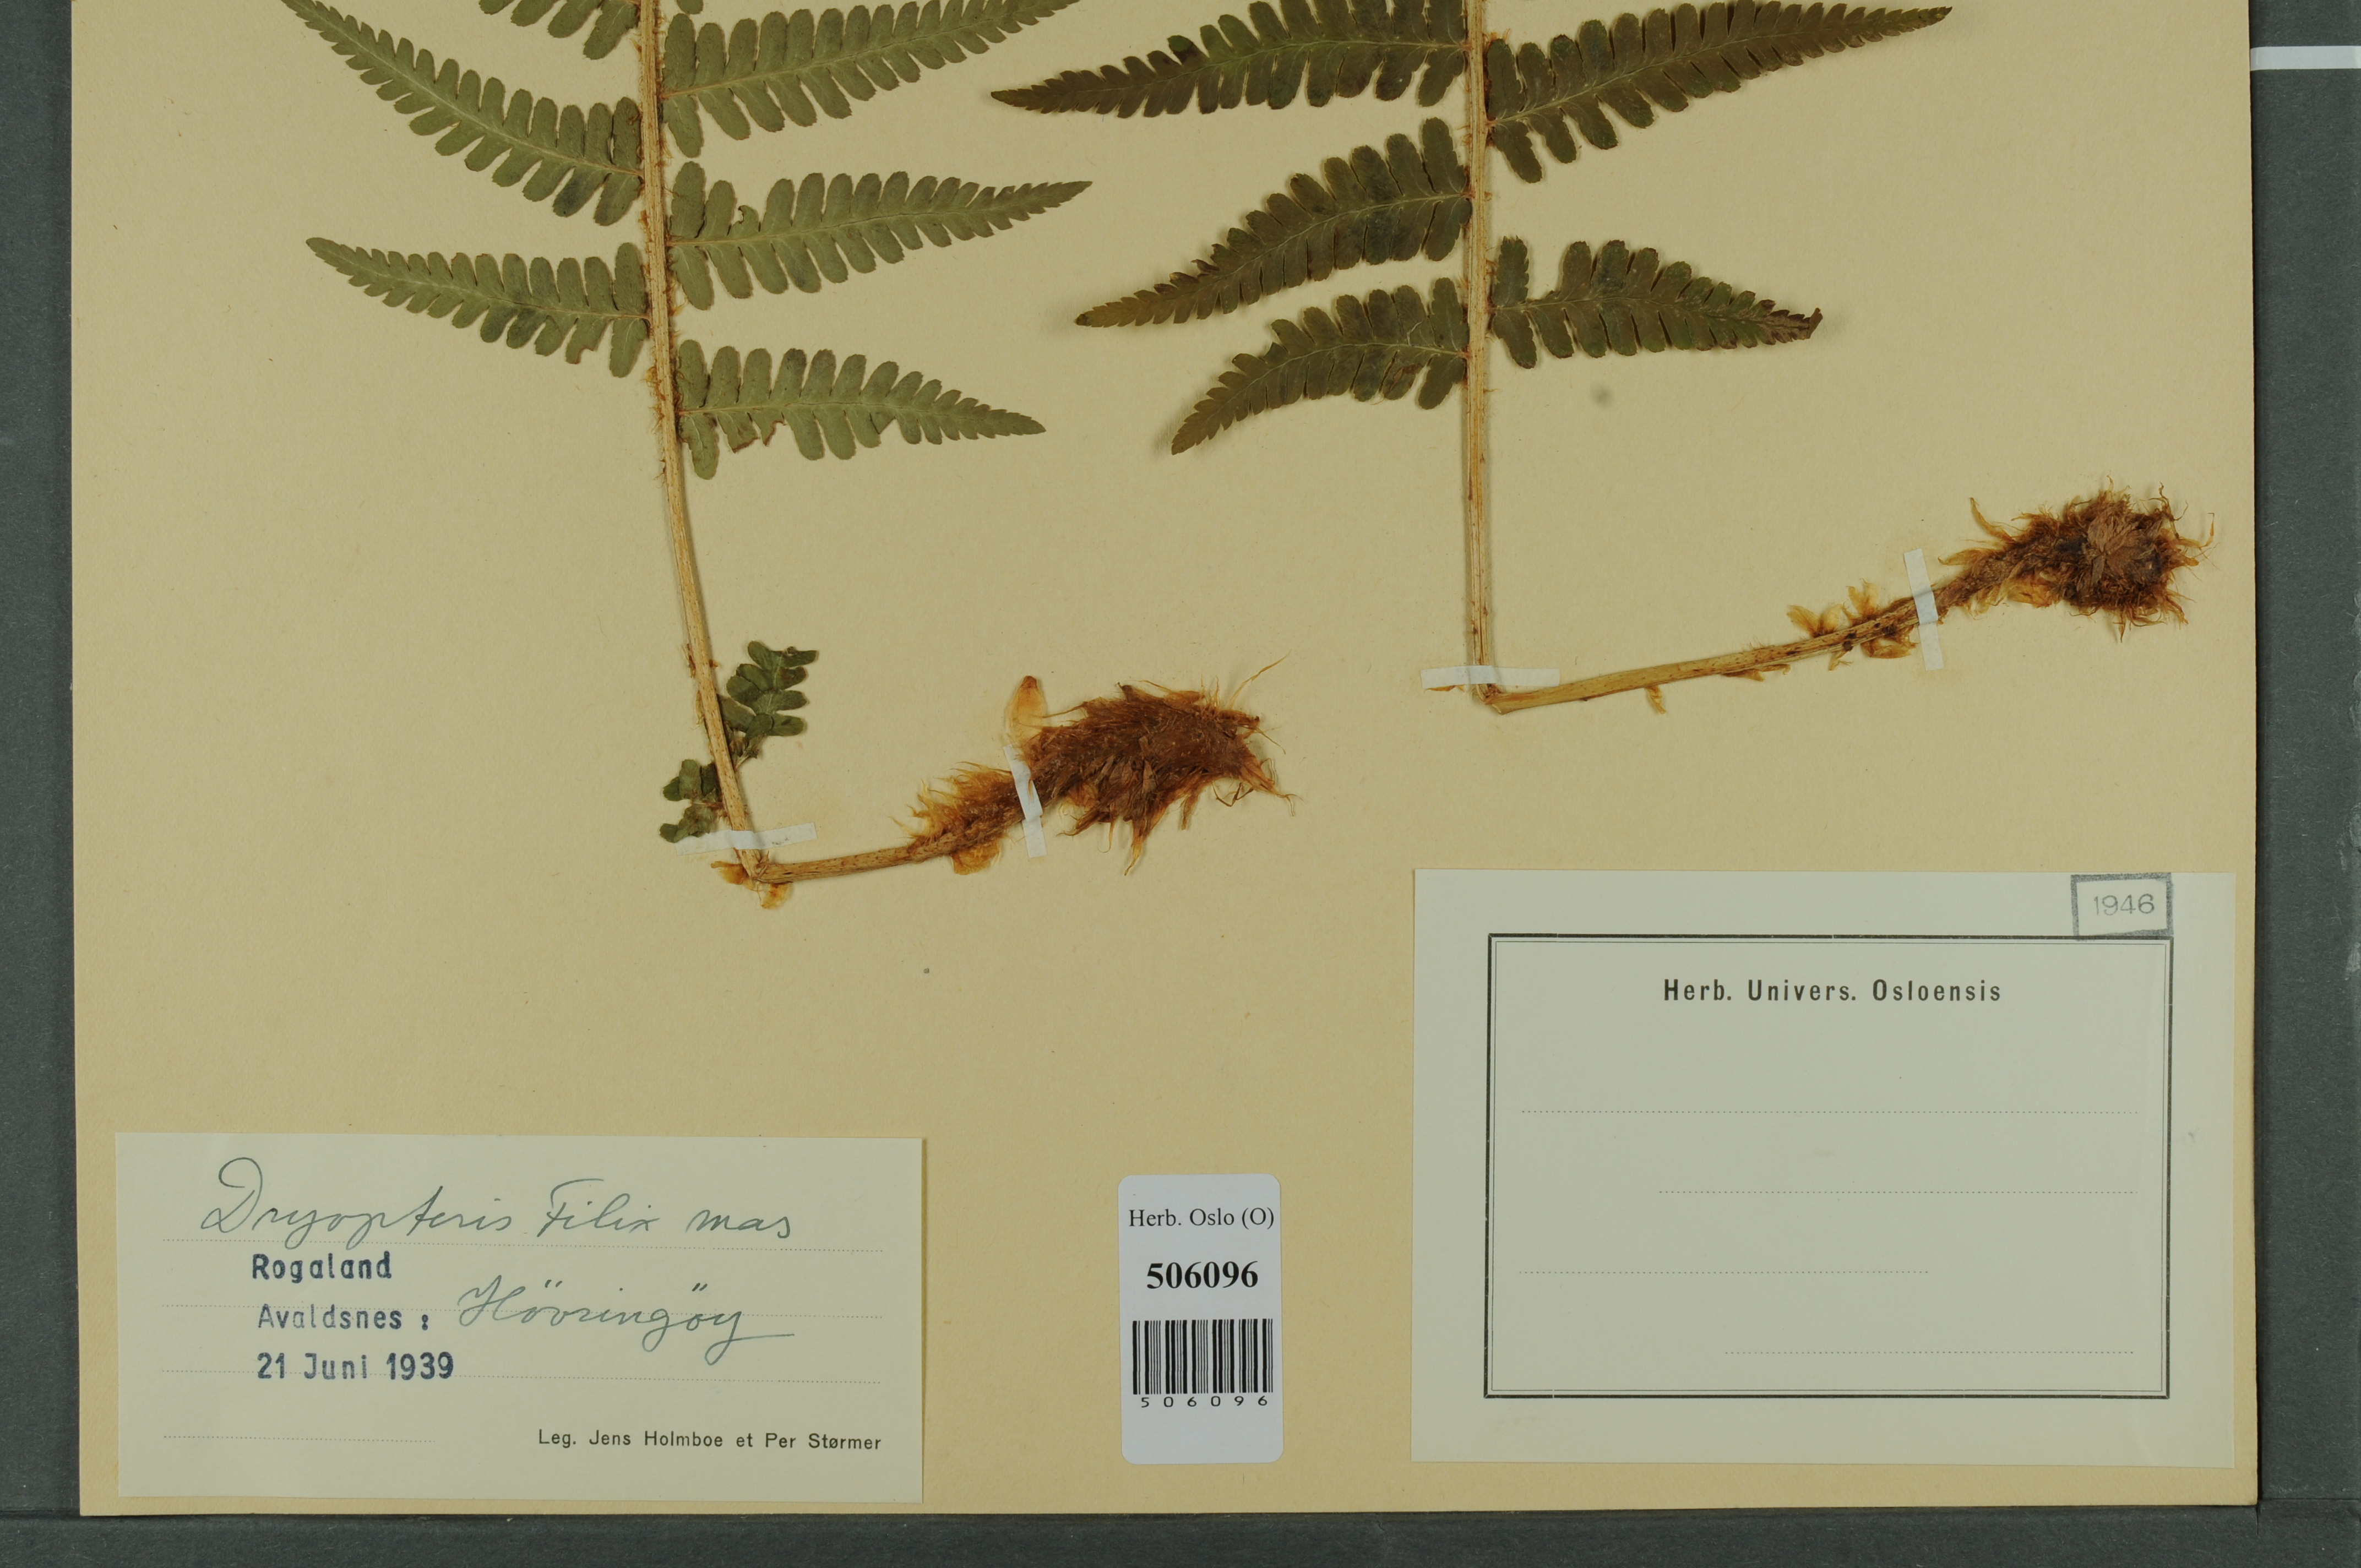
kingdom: Plantae
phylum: Tracheophyta
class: Polypodiopsida
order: Polypodiales
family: Dryopteridaceae
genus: Dryopteris
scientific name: Dryopteris filix-mas
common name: Male fern
